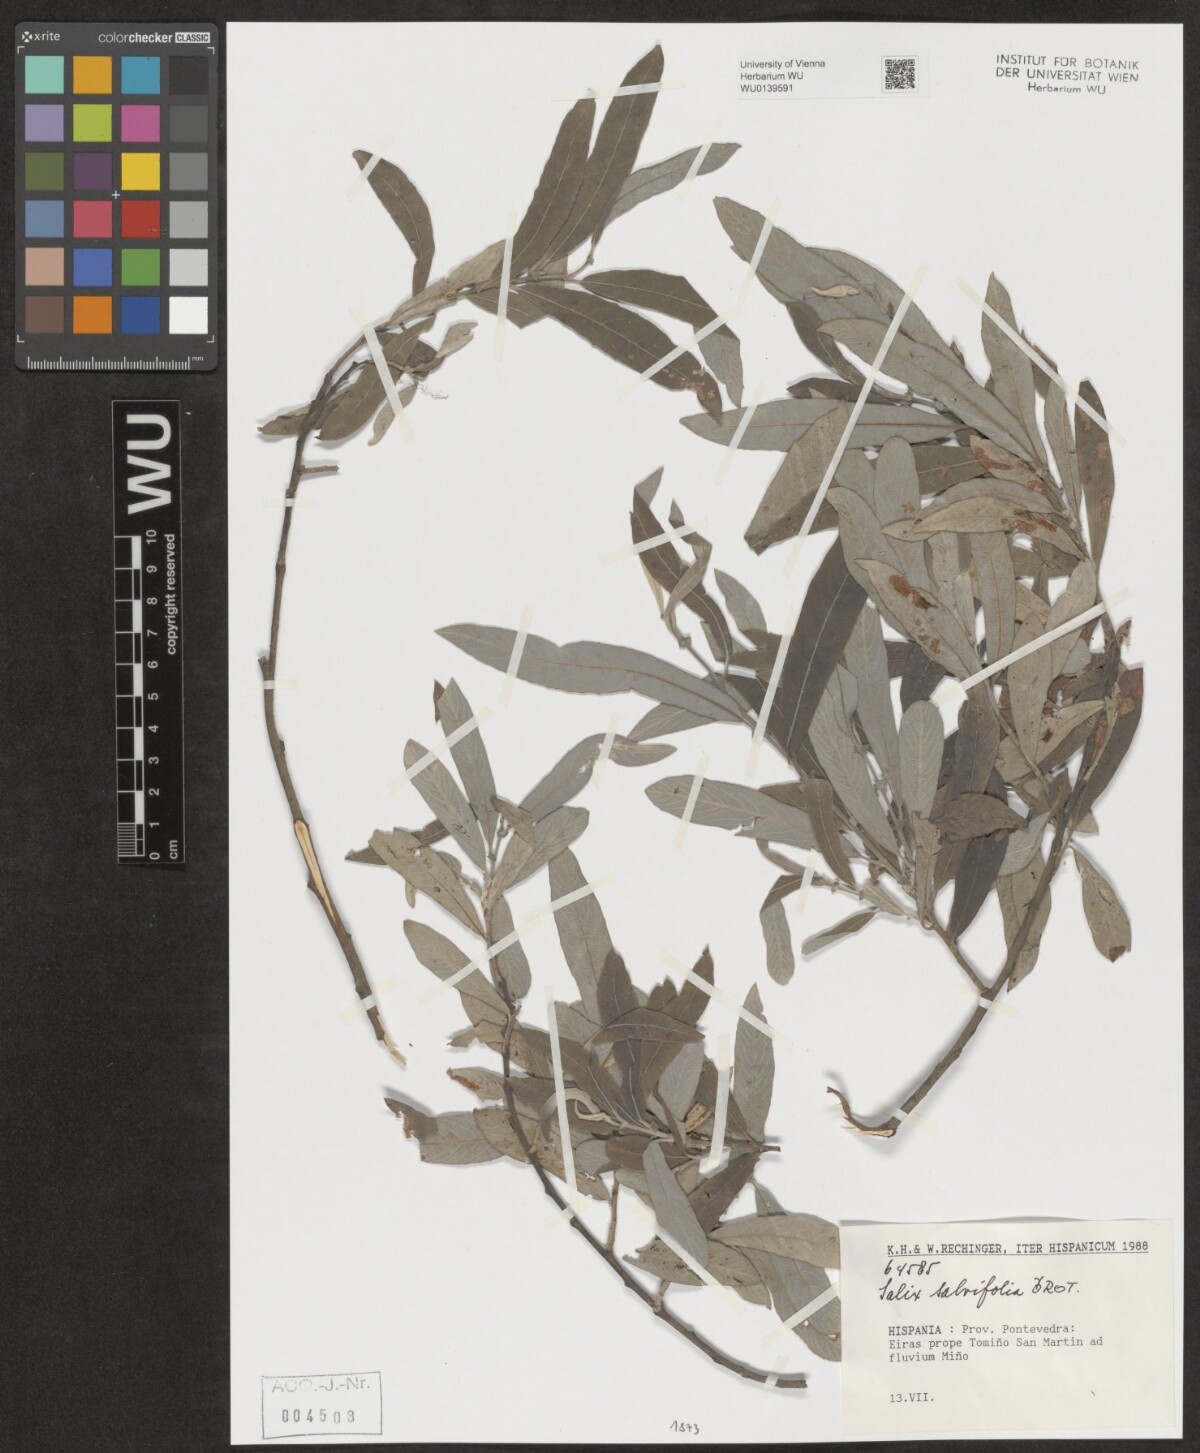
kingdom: Plantae
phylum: Tracheophyta
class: Magnoliopsida
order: Malpighiales
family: Salicaceae
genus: Salix
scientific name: Salix salviifolia
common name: Salvia-leaf willow
